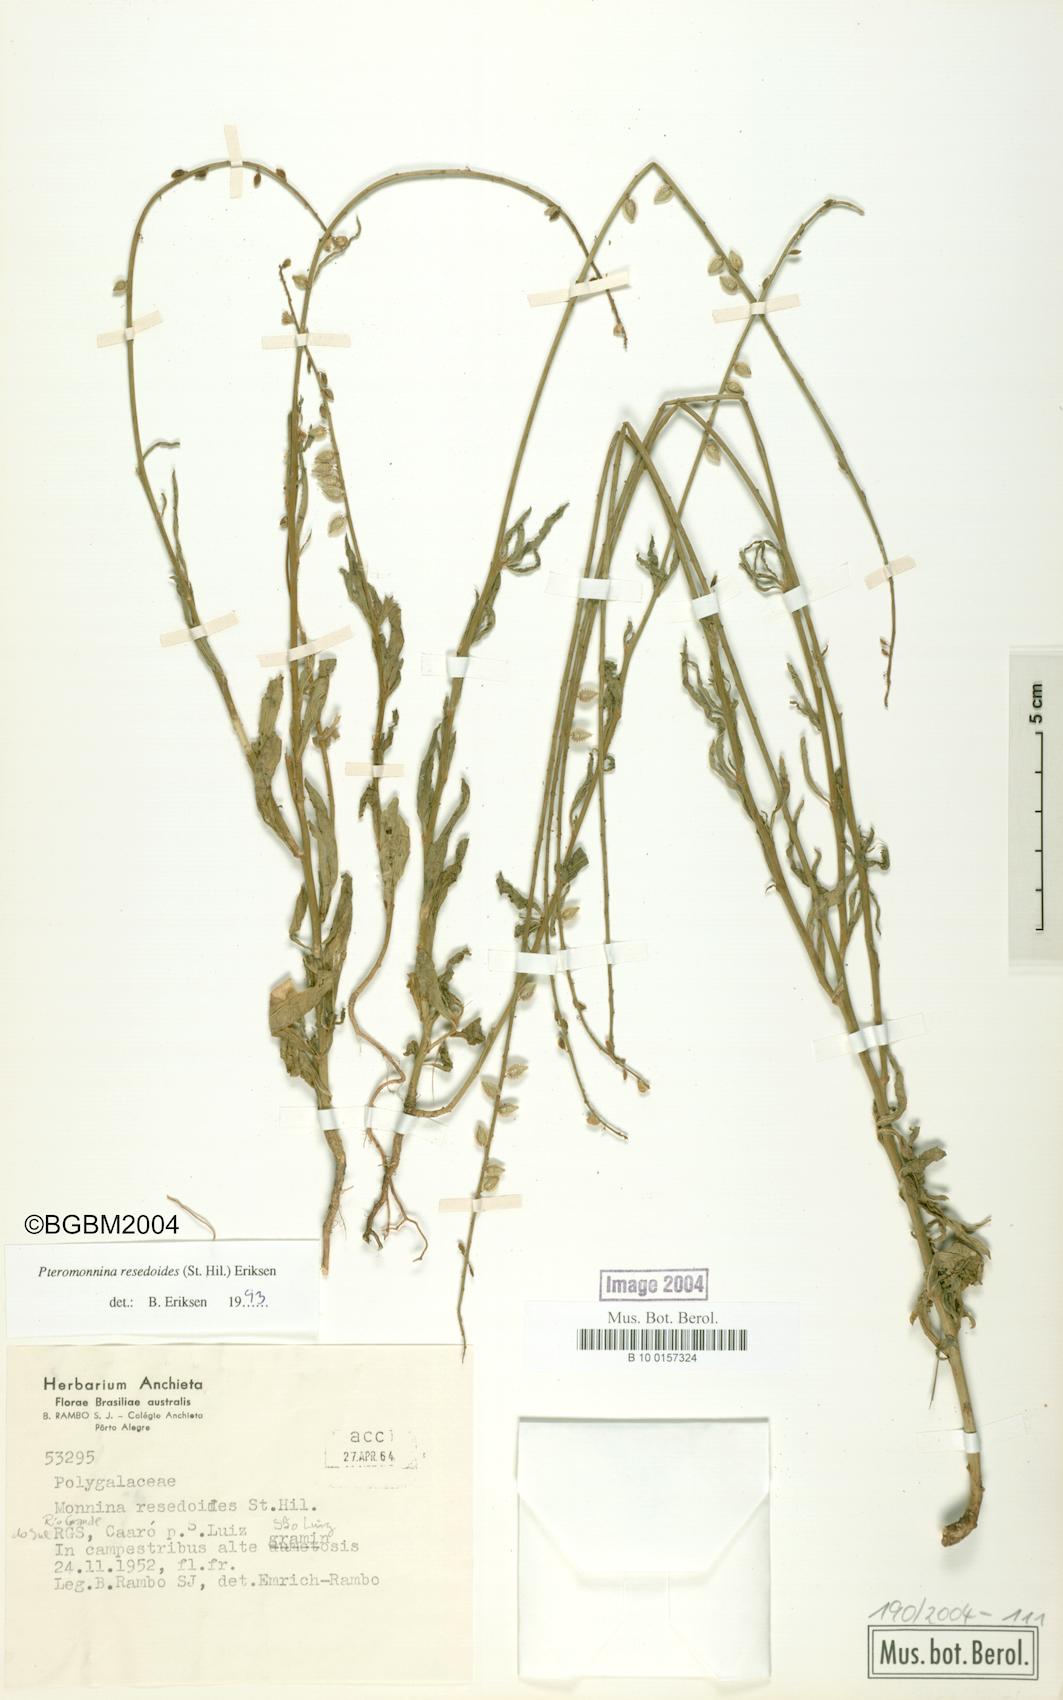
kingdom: Plantae
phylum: Tracheophyta
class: Magnoliopsida
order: Fabales
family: Polygalaceae
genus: Monnina
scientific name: Monnina resedoides
